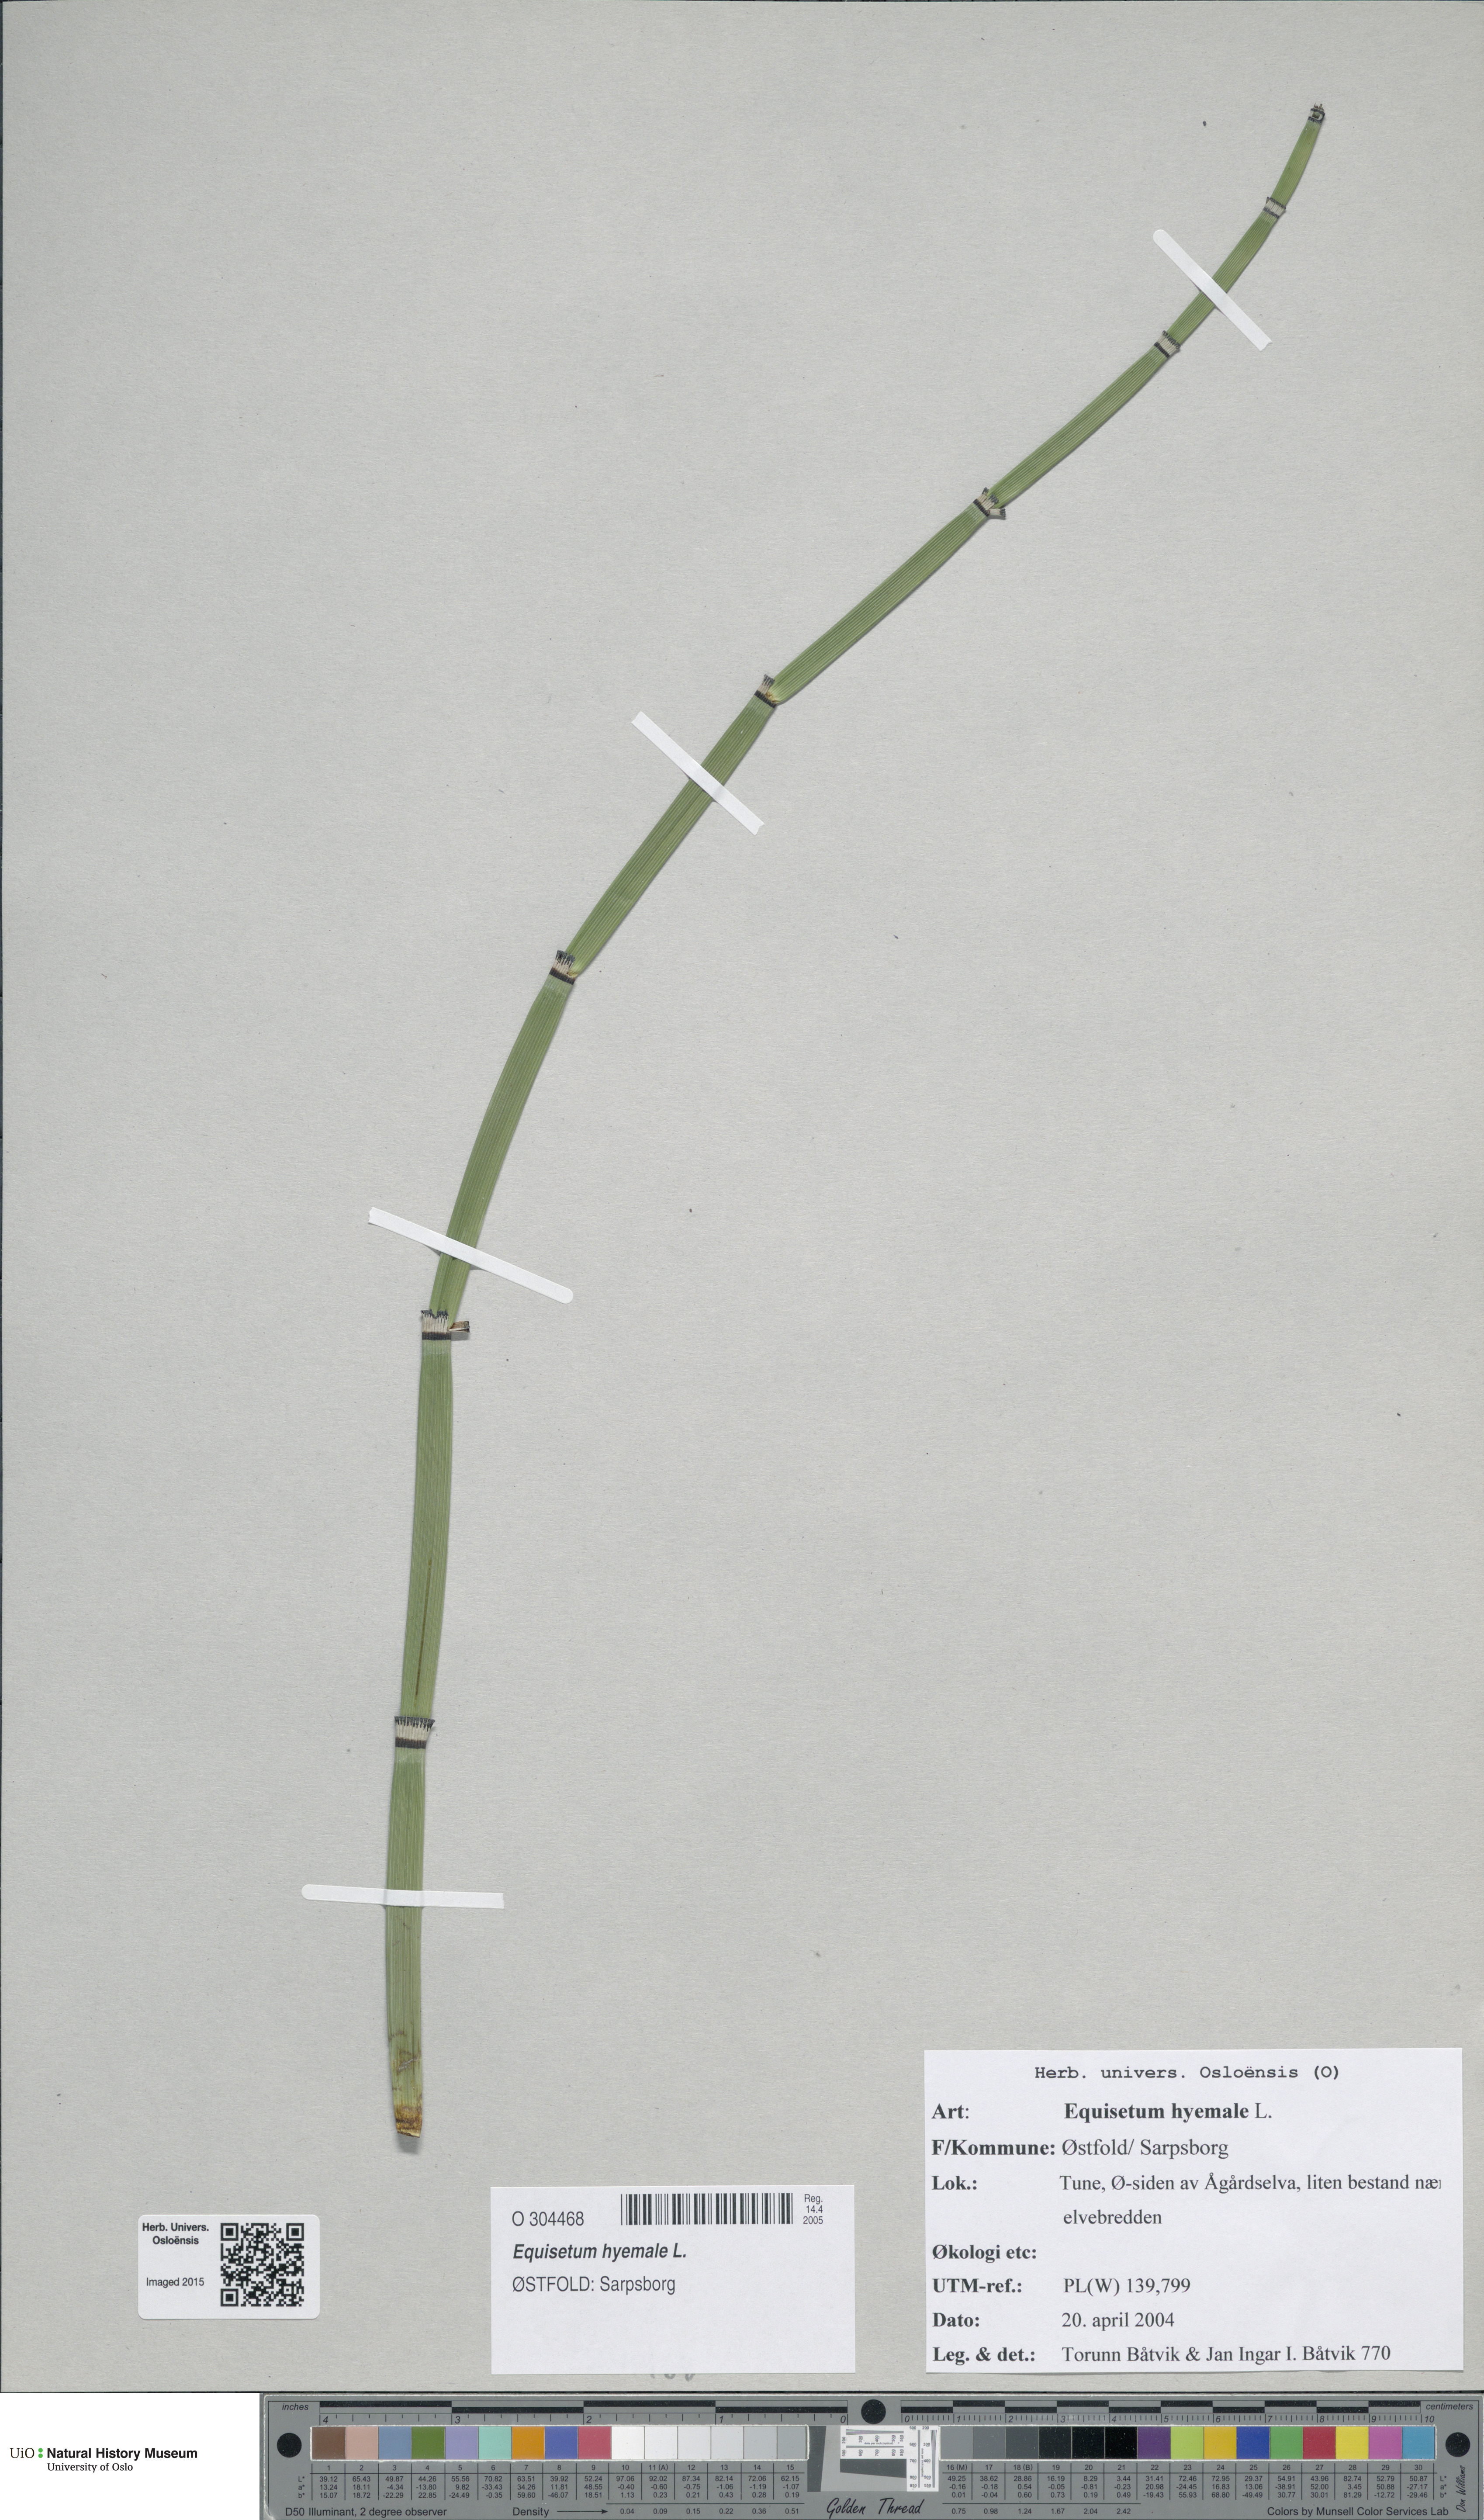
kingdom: Plantae
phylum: Tracheophyta
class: Polypodiopsida
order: Equisetales
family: Equisetaceae
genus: Equisetum
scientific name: Equisetum hyemale
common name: Rough horsetail
